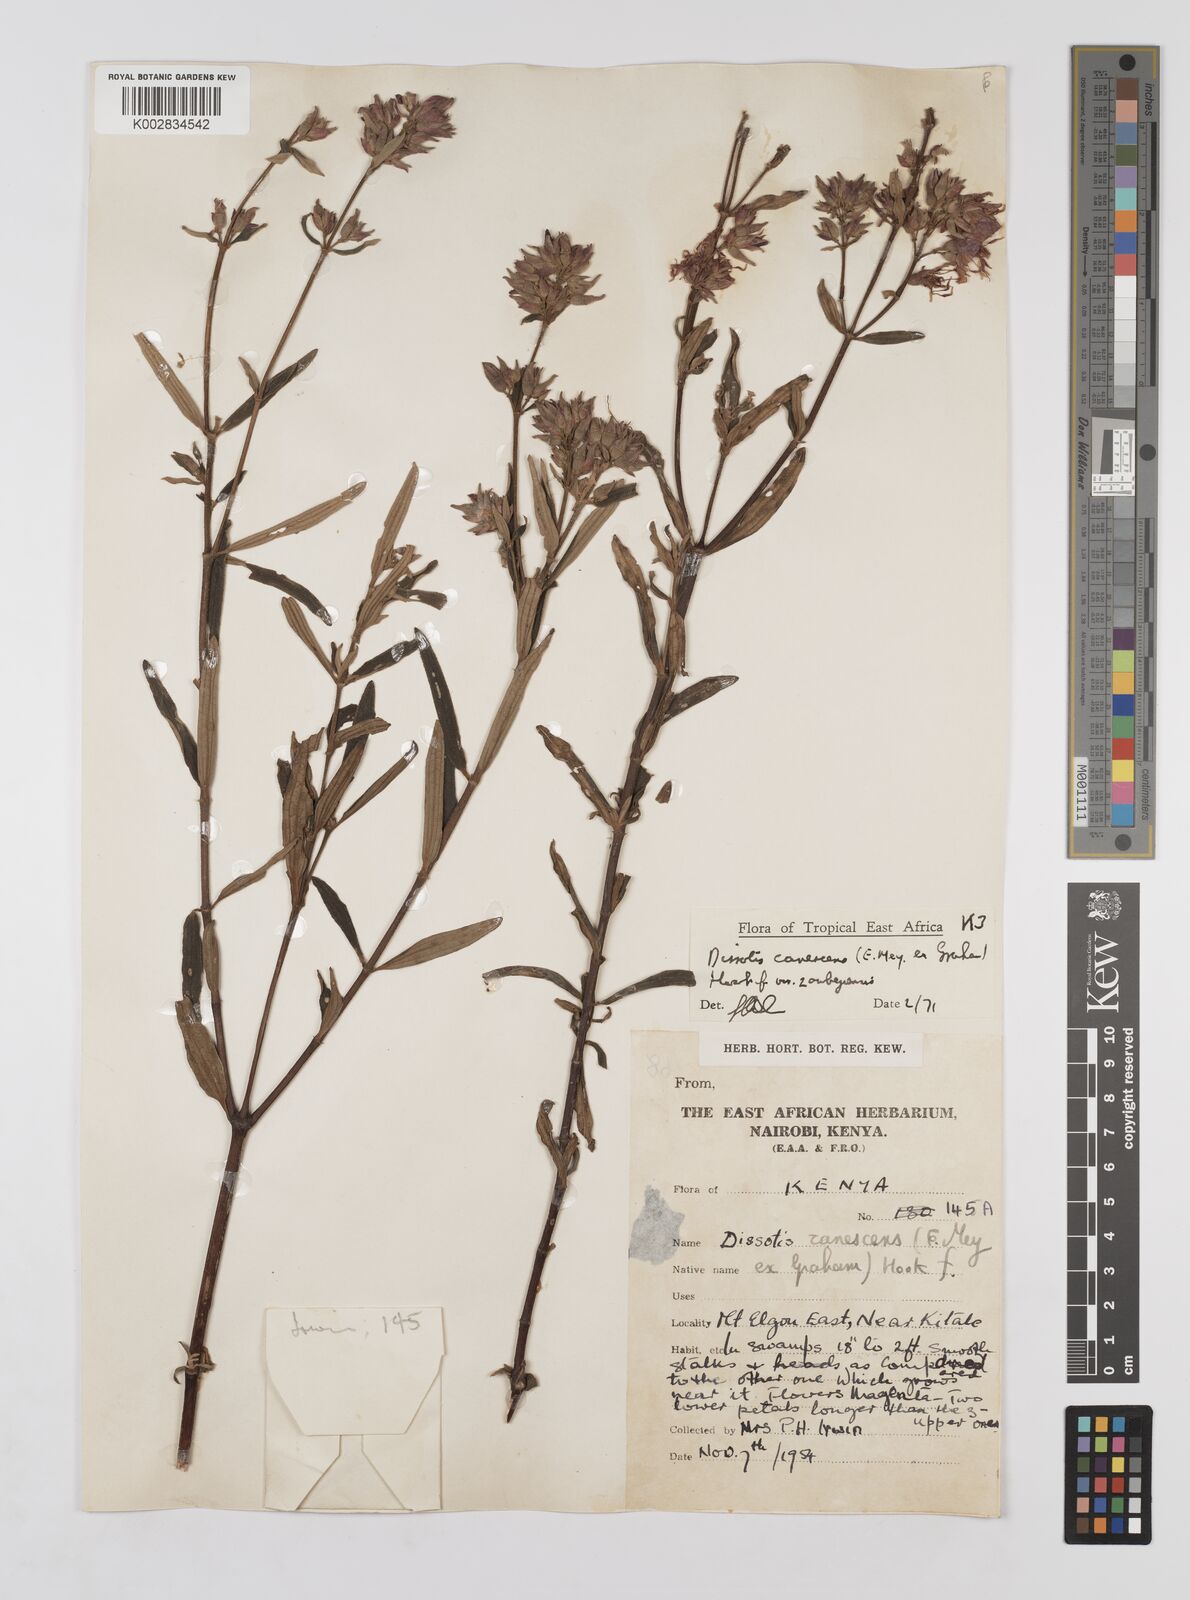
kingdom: Plantae
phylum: Tracheophyta
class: Magnoliopsida
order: Myrtales
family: Melastomataceae
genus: Argyrella
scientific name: Argyrella canescens
